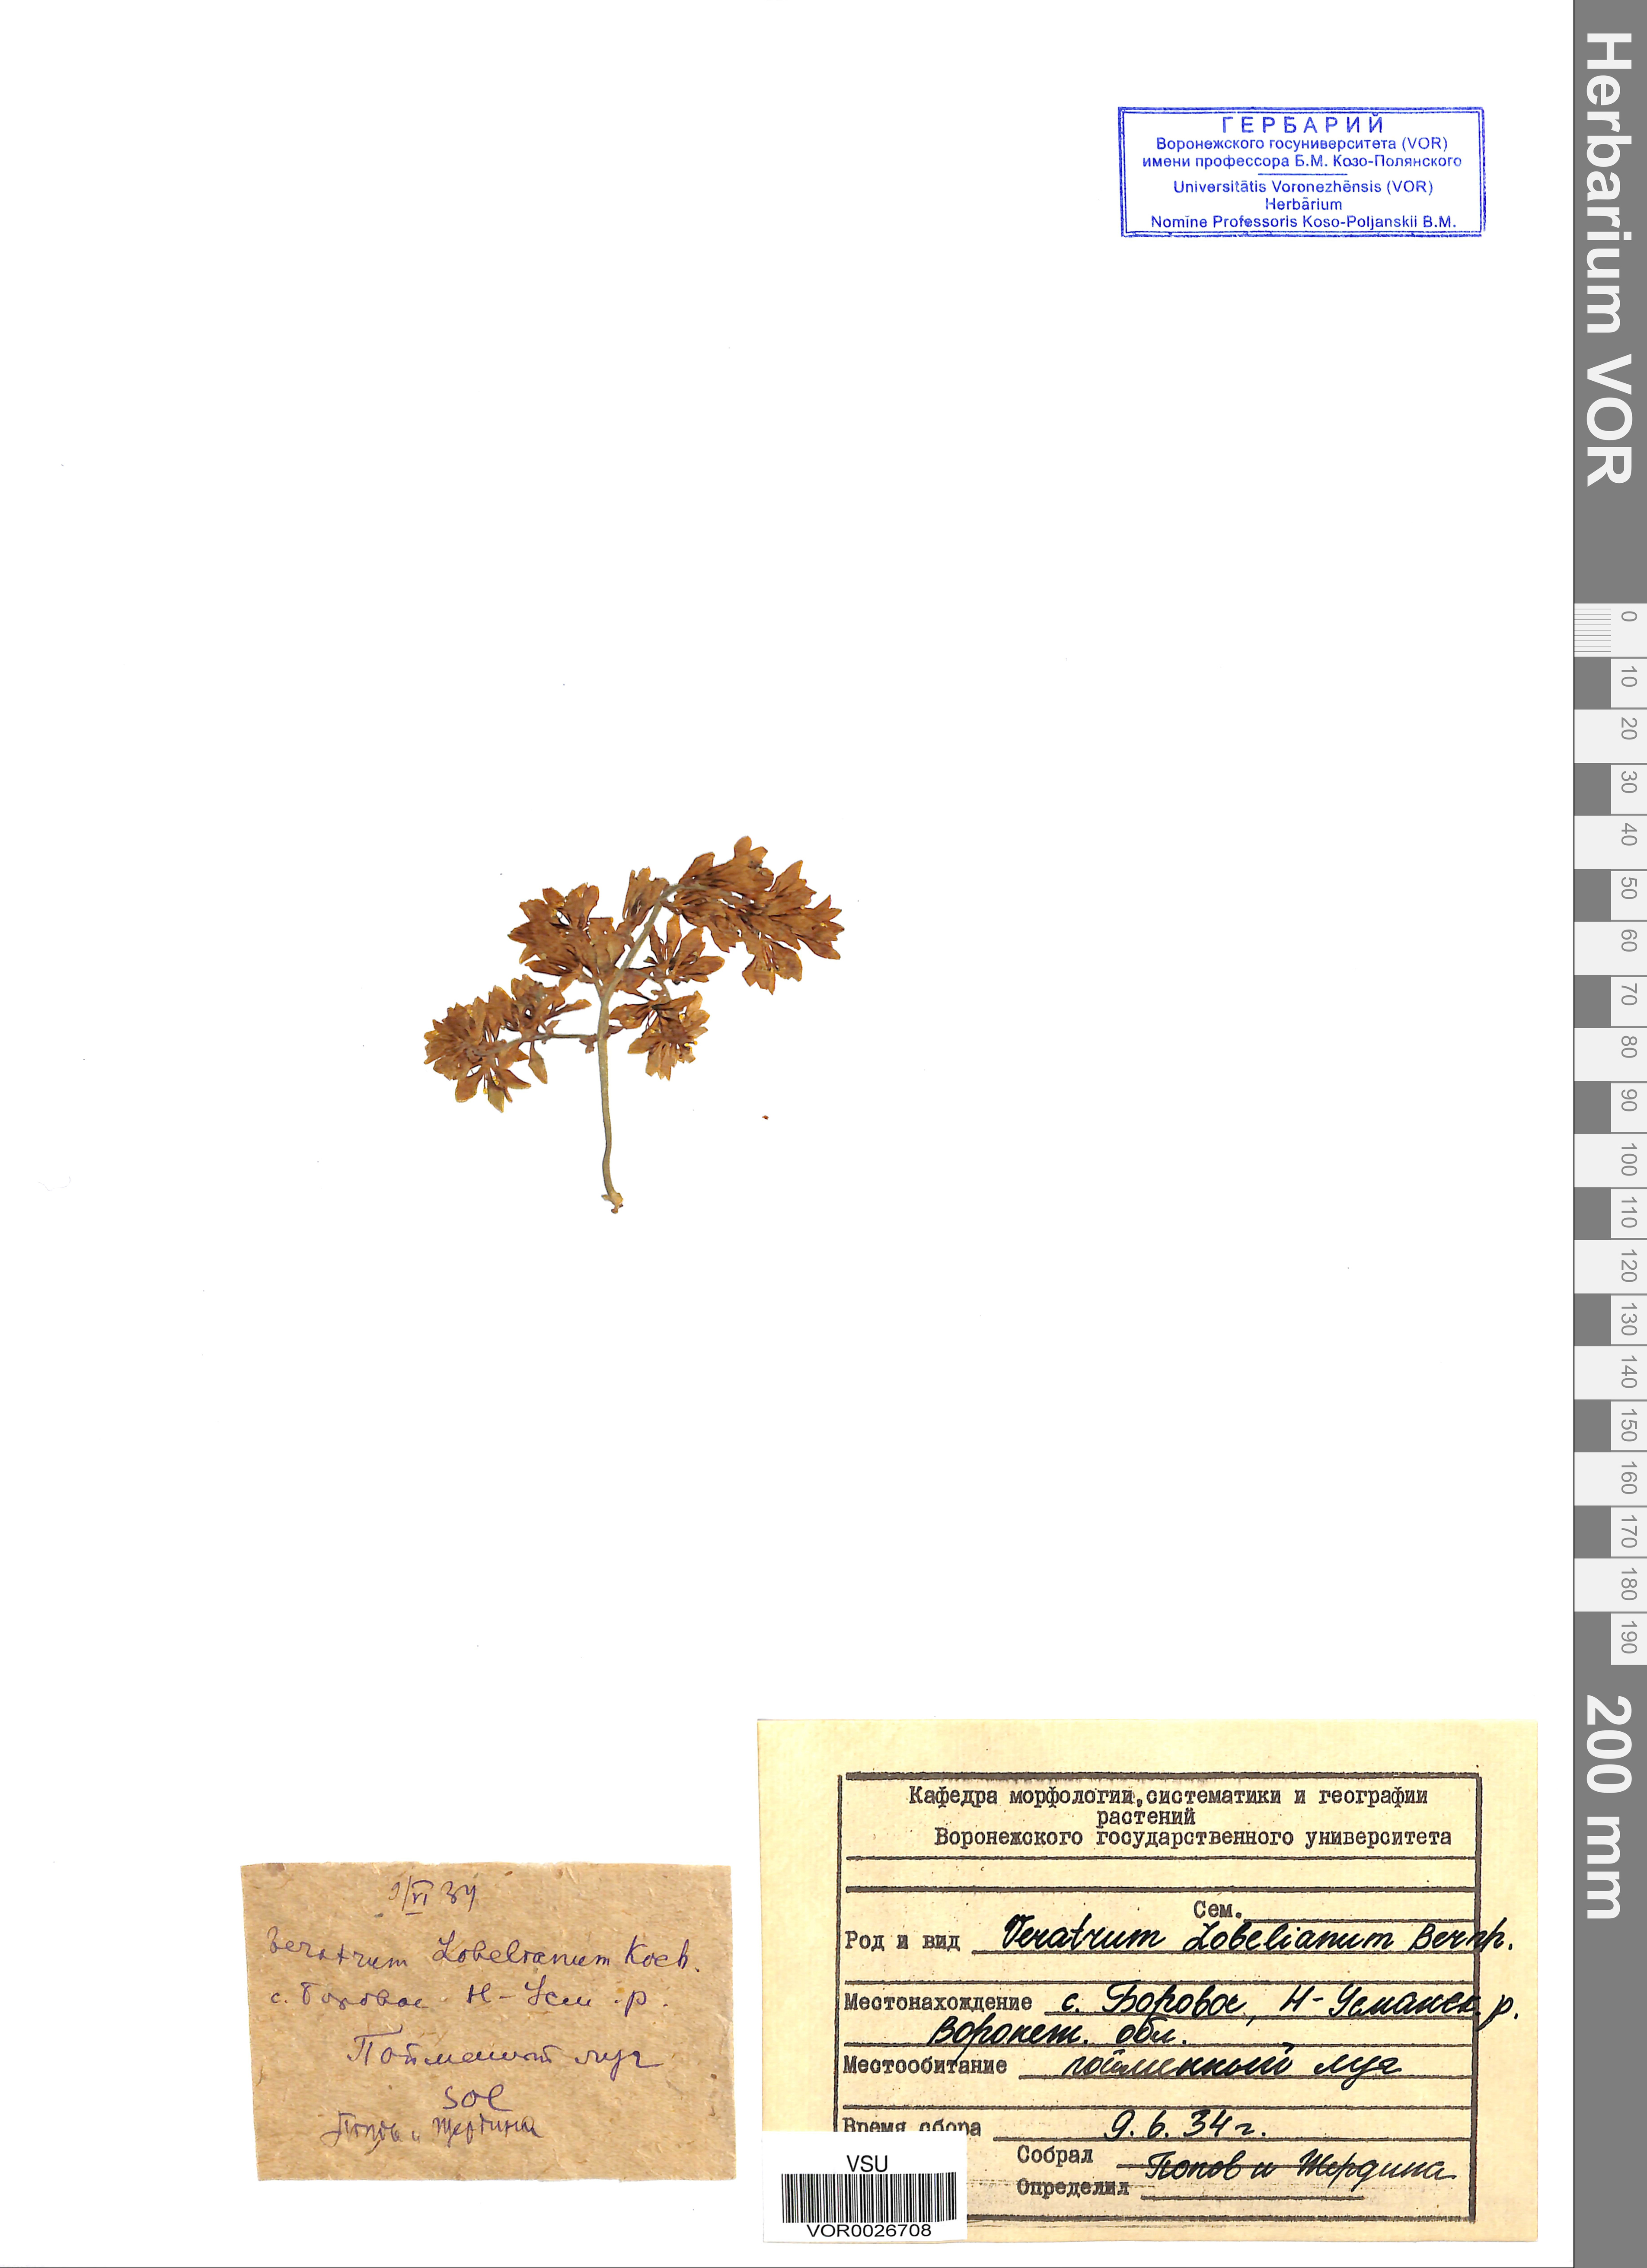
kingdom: Plantae
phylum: Tracheophyta
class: Liliopsida
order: Liliales
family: Melanthiaceae
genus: Veratrum
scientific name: Veratrum lobelianum
